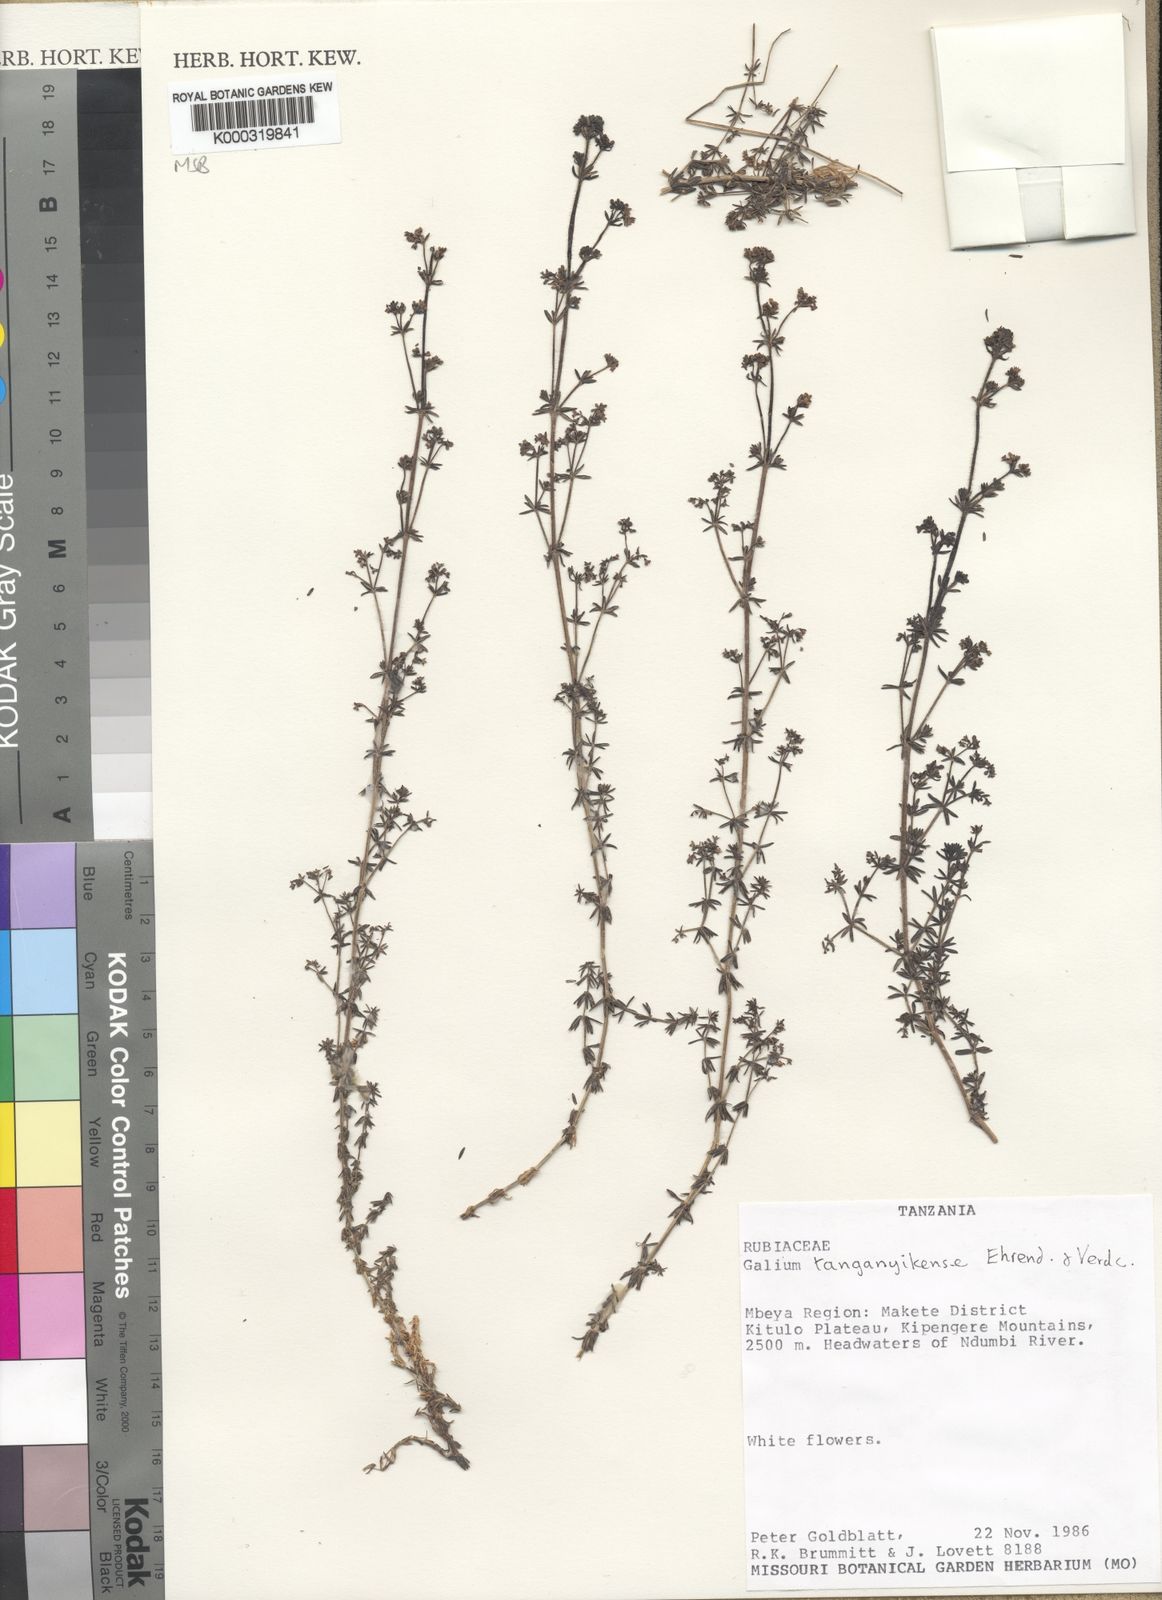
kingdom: Plantae
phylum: Tracheophyta
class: Magnoliopsida
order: Gentianales
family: Rubiaceae
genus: Galium
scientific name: Galium tanganyikense
